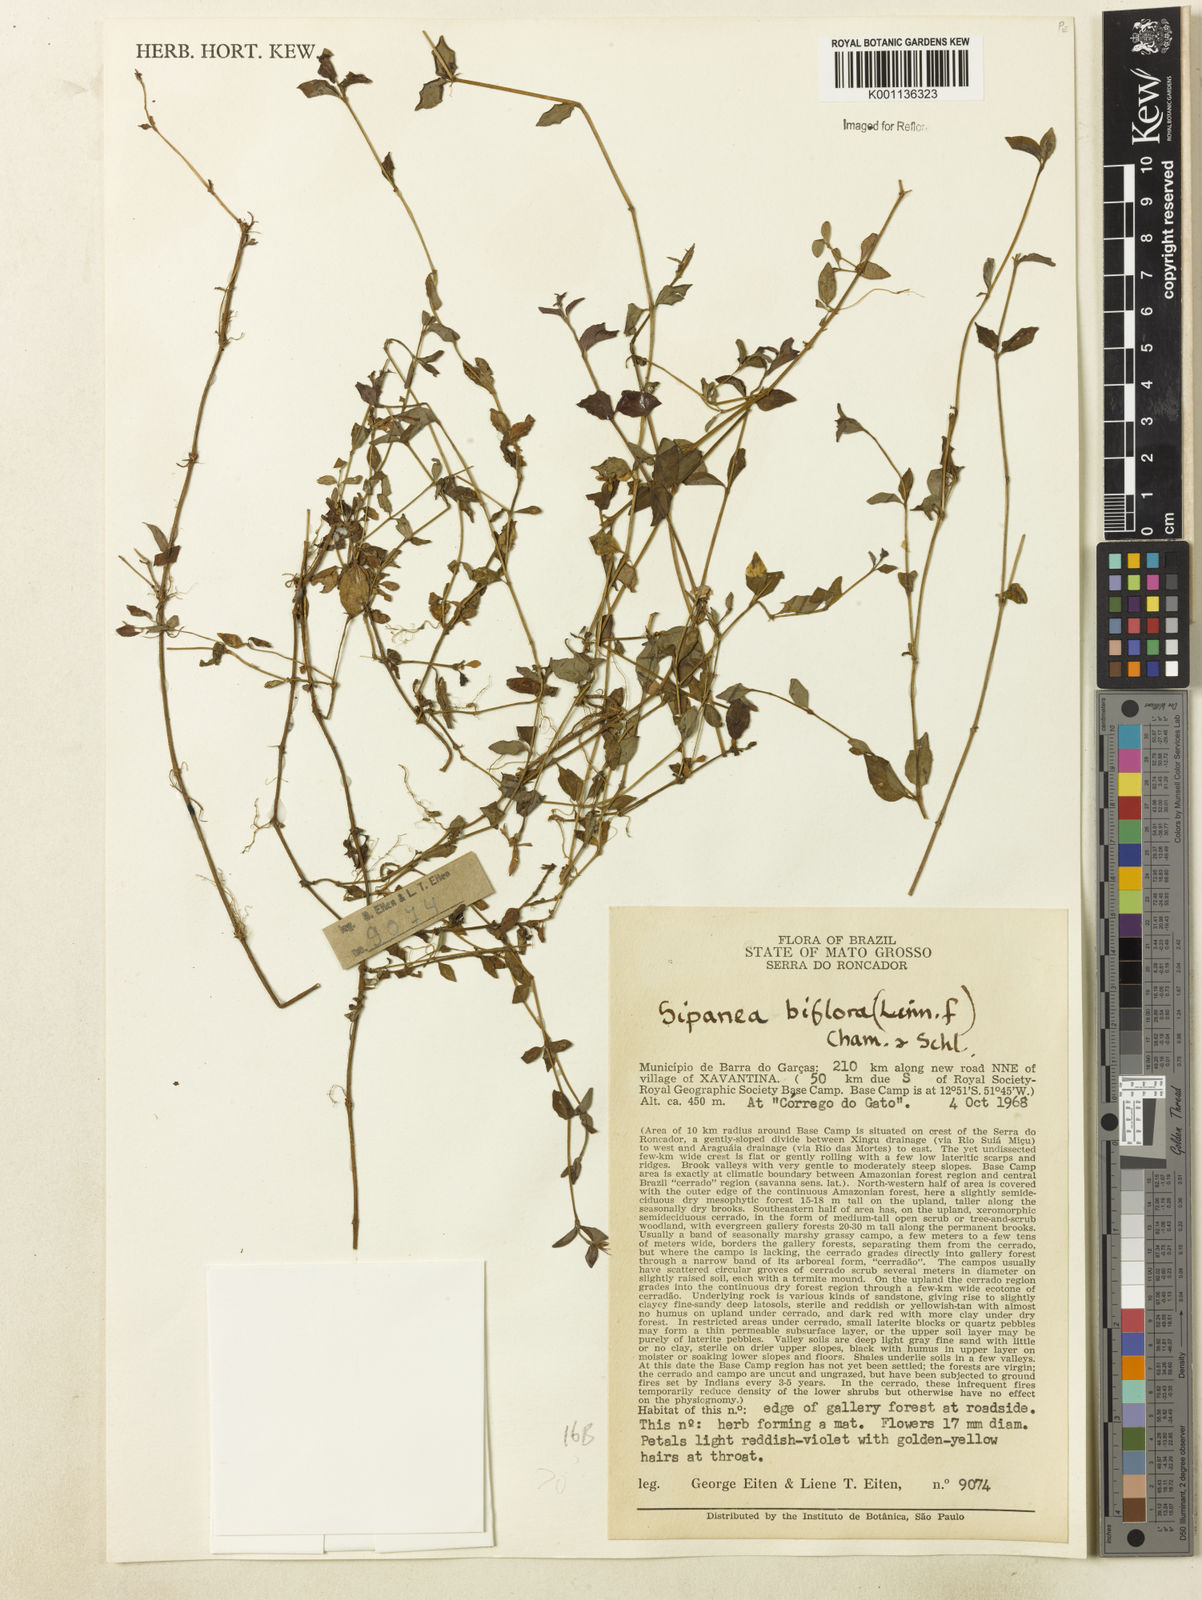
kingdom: Plantae
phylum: Tracheophyta
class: Magnoliopsida
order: Gentianales
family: Rubiaceae
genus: Sipanea
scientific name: Sipanea biflora
